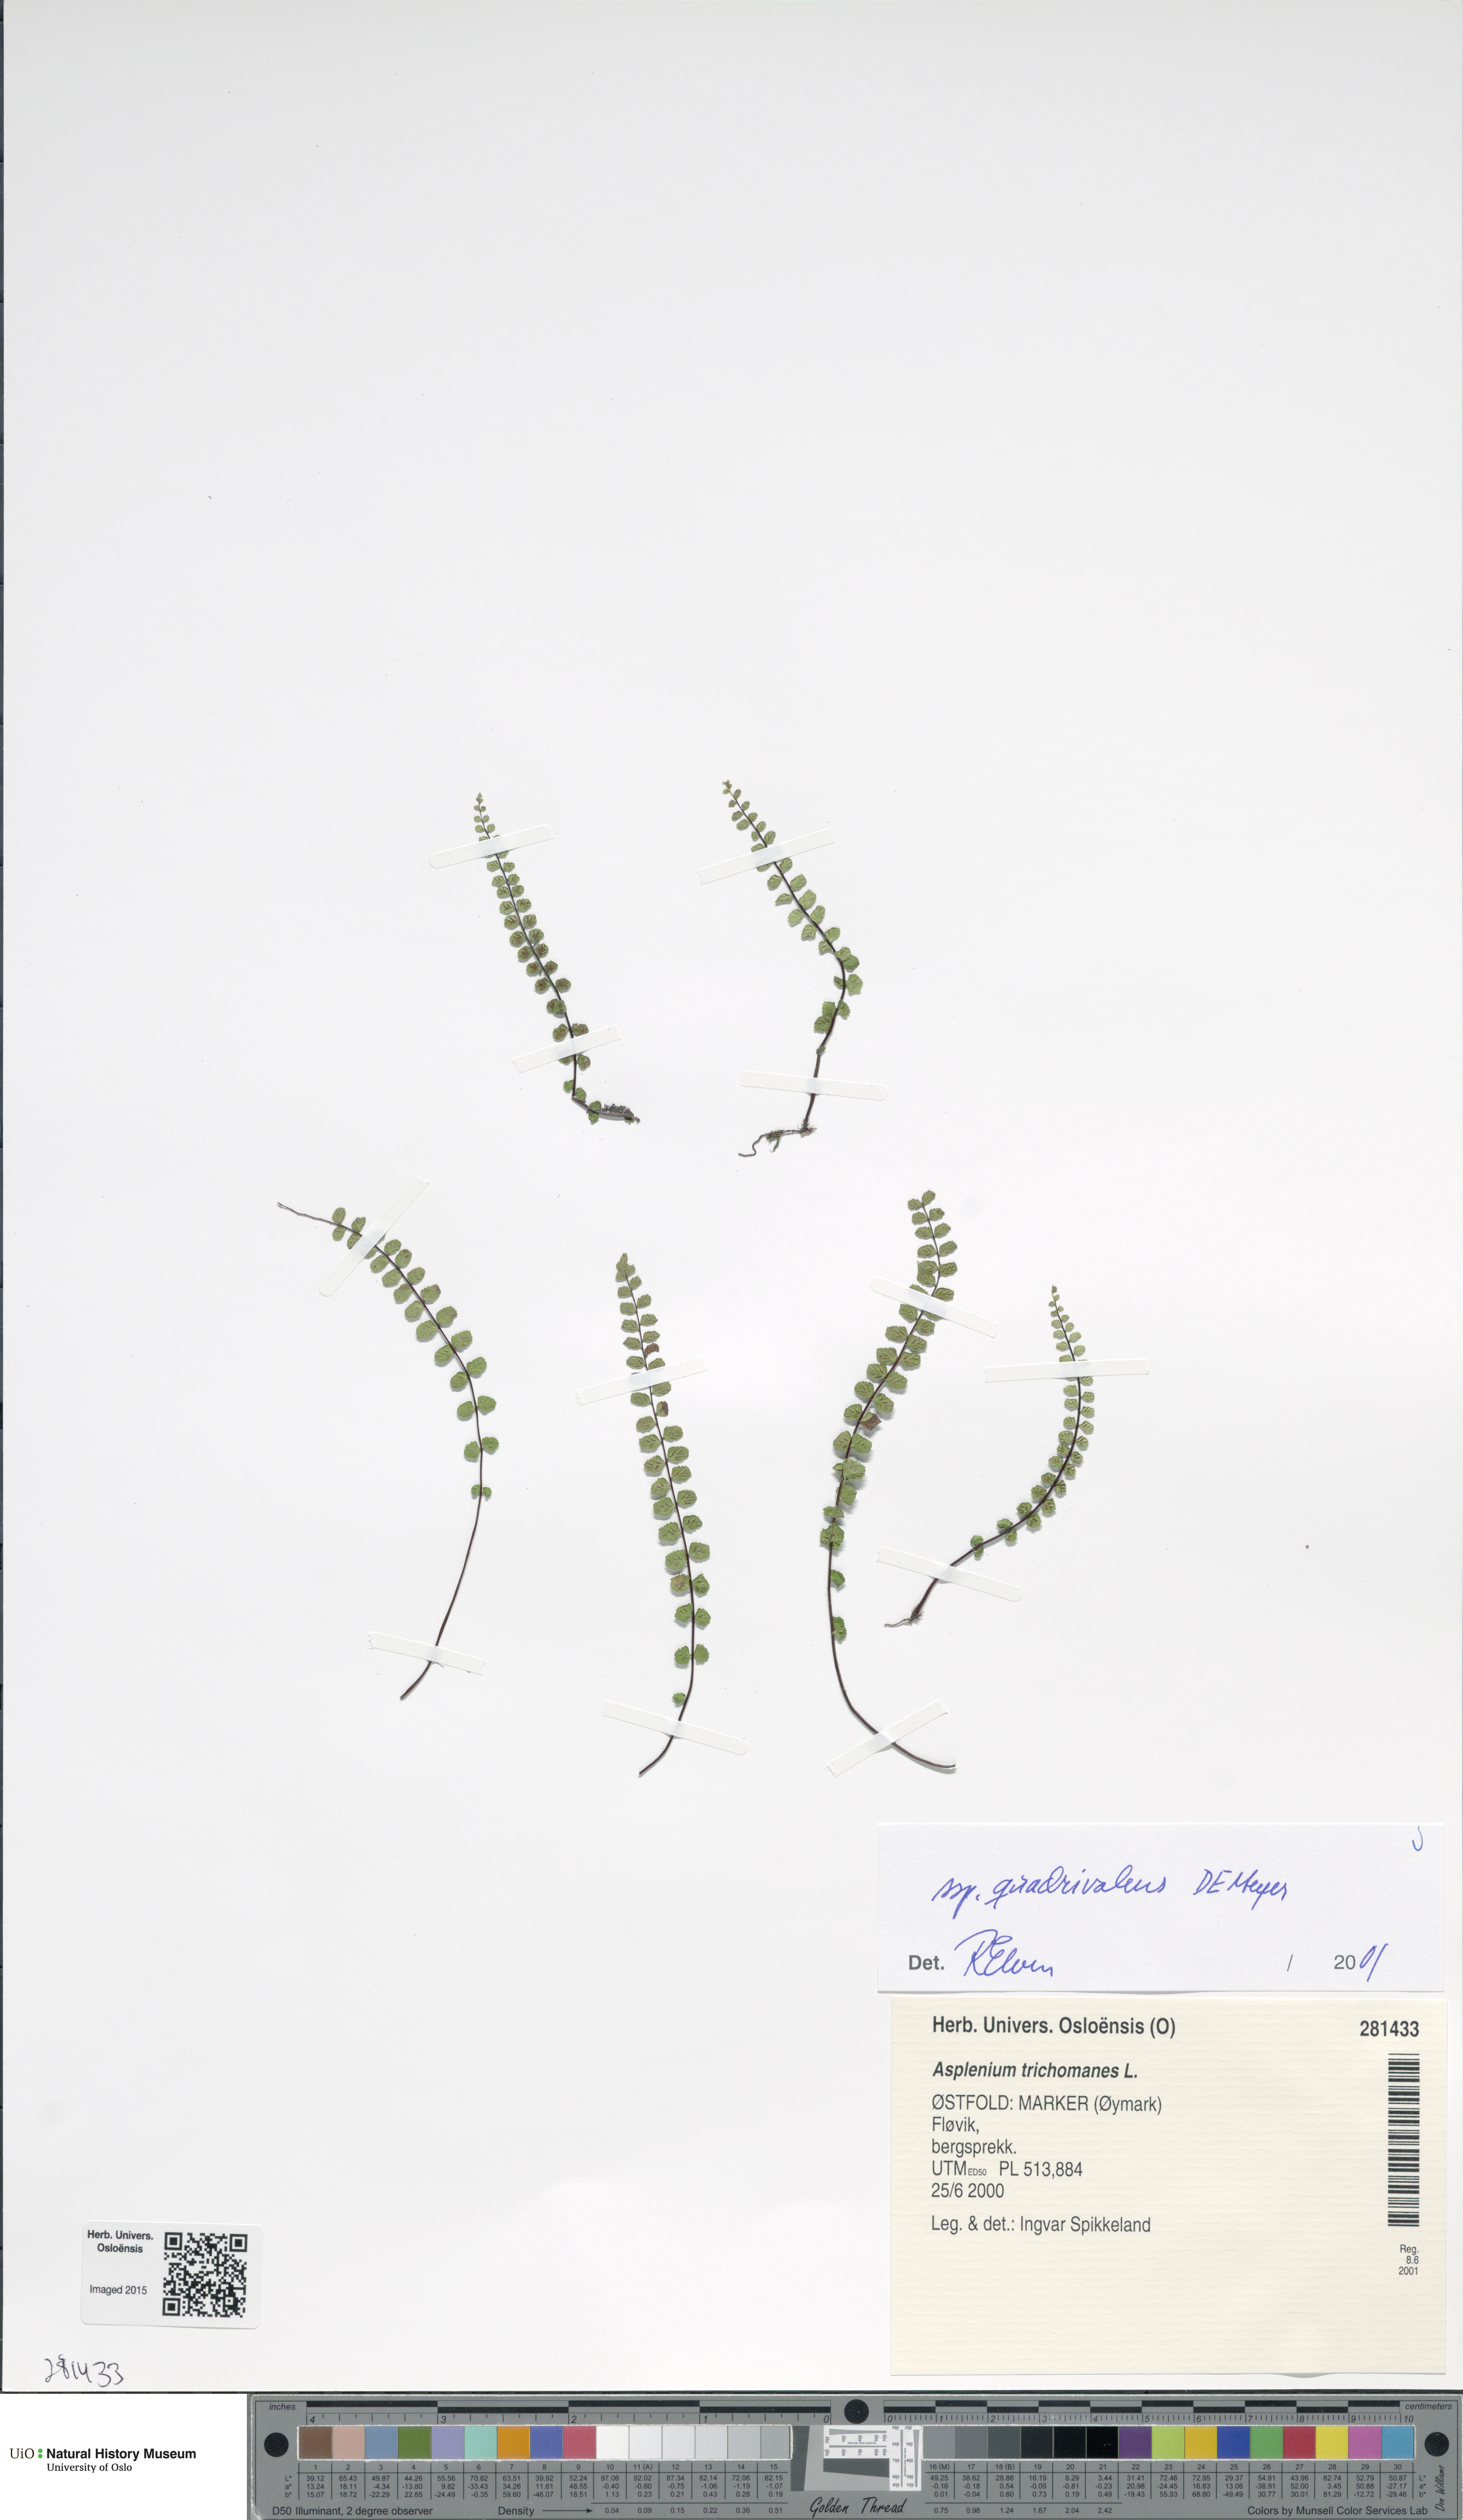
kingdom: Plantae
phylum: Tracheophyta
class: Polypodiopsida
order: Polypodiales
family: Aspleniaceae
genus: Asplenium
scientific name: Asplenium quadrivalens
